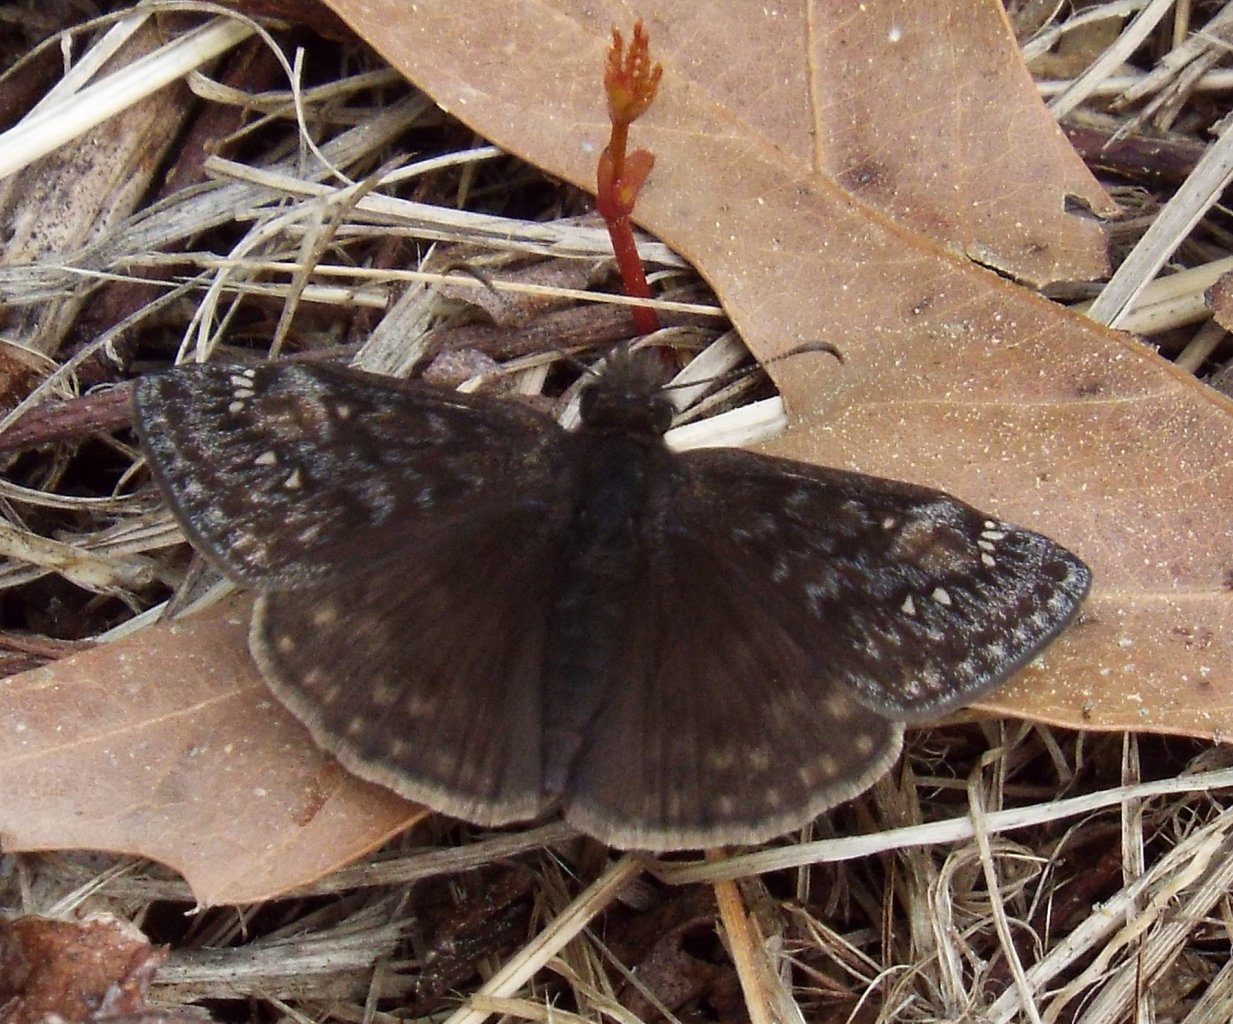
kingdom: Animalia
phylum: Arthropoda
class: Insecta
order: Lepidoptera
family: Hesperiidae
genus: Gesta
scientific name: Gesta
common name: Juvenal's Duskywing
